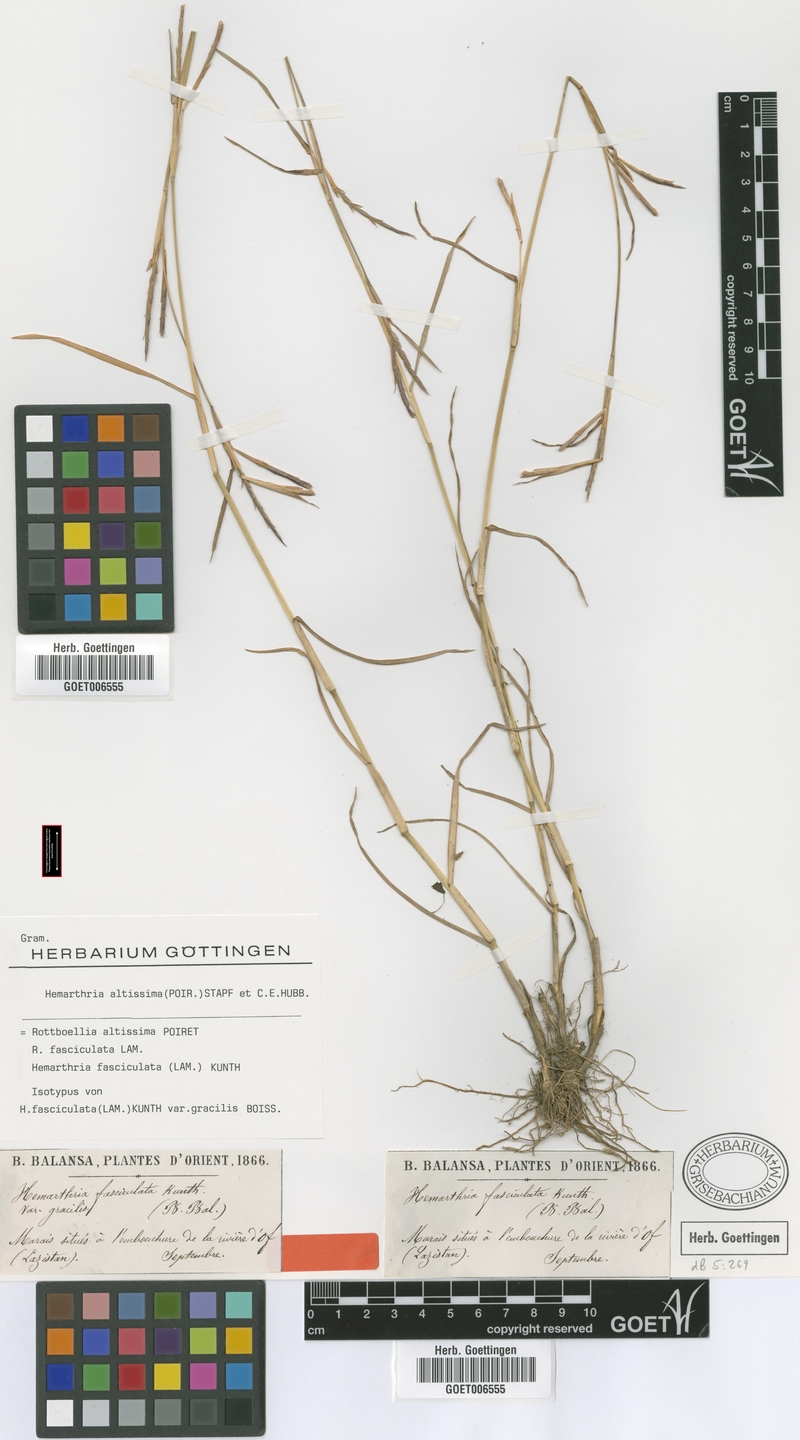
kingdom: Plantae
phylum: Tracheophyta
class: Liliopsida
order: Poales
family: Poaceae
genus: Hemarthria
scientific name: Hemarthria altissima
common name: African jointgrass
